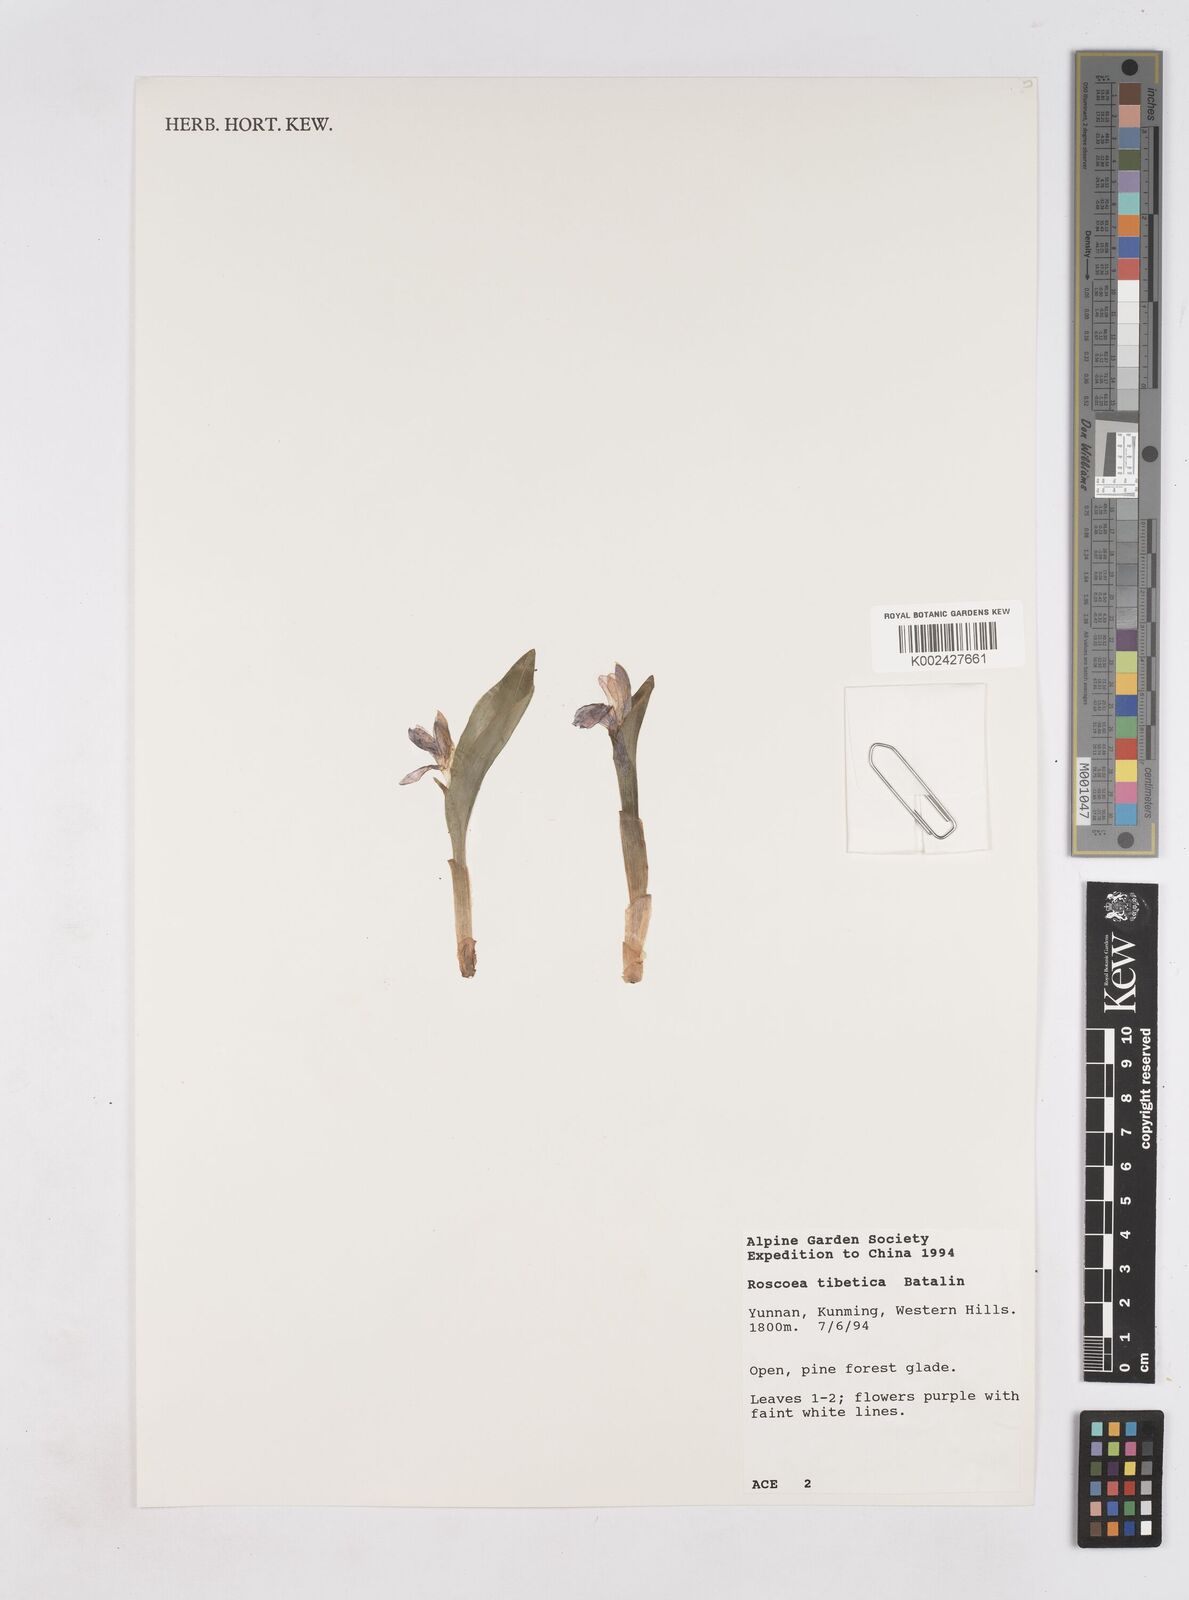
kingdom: Plantae
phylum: Tracheophyta
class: Liliopsida
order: Zingiberales
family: Zingiberaceae
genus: Roscoea
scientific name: Roscoea tibetica
